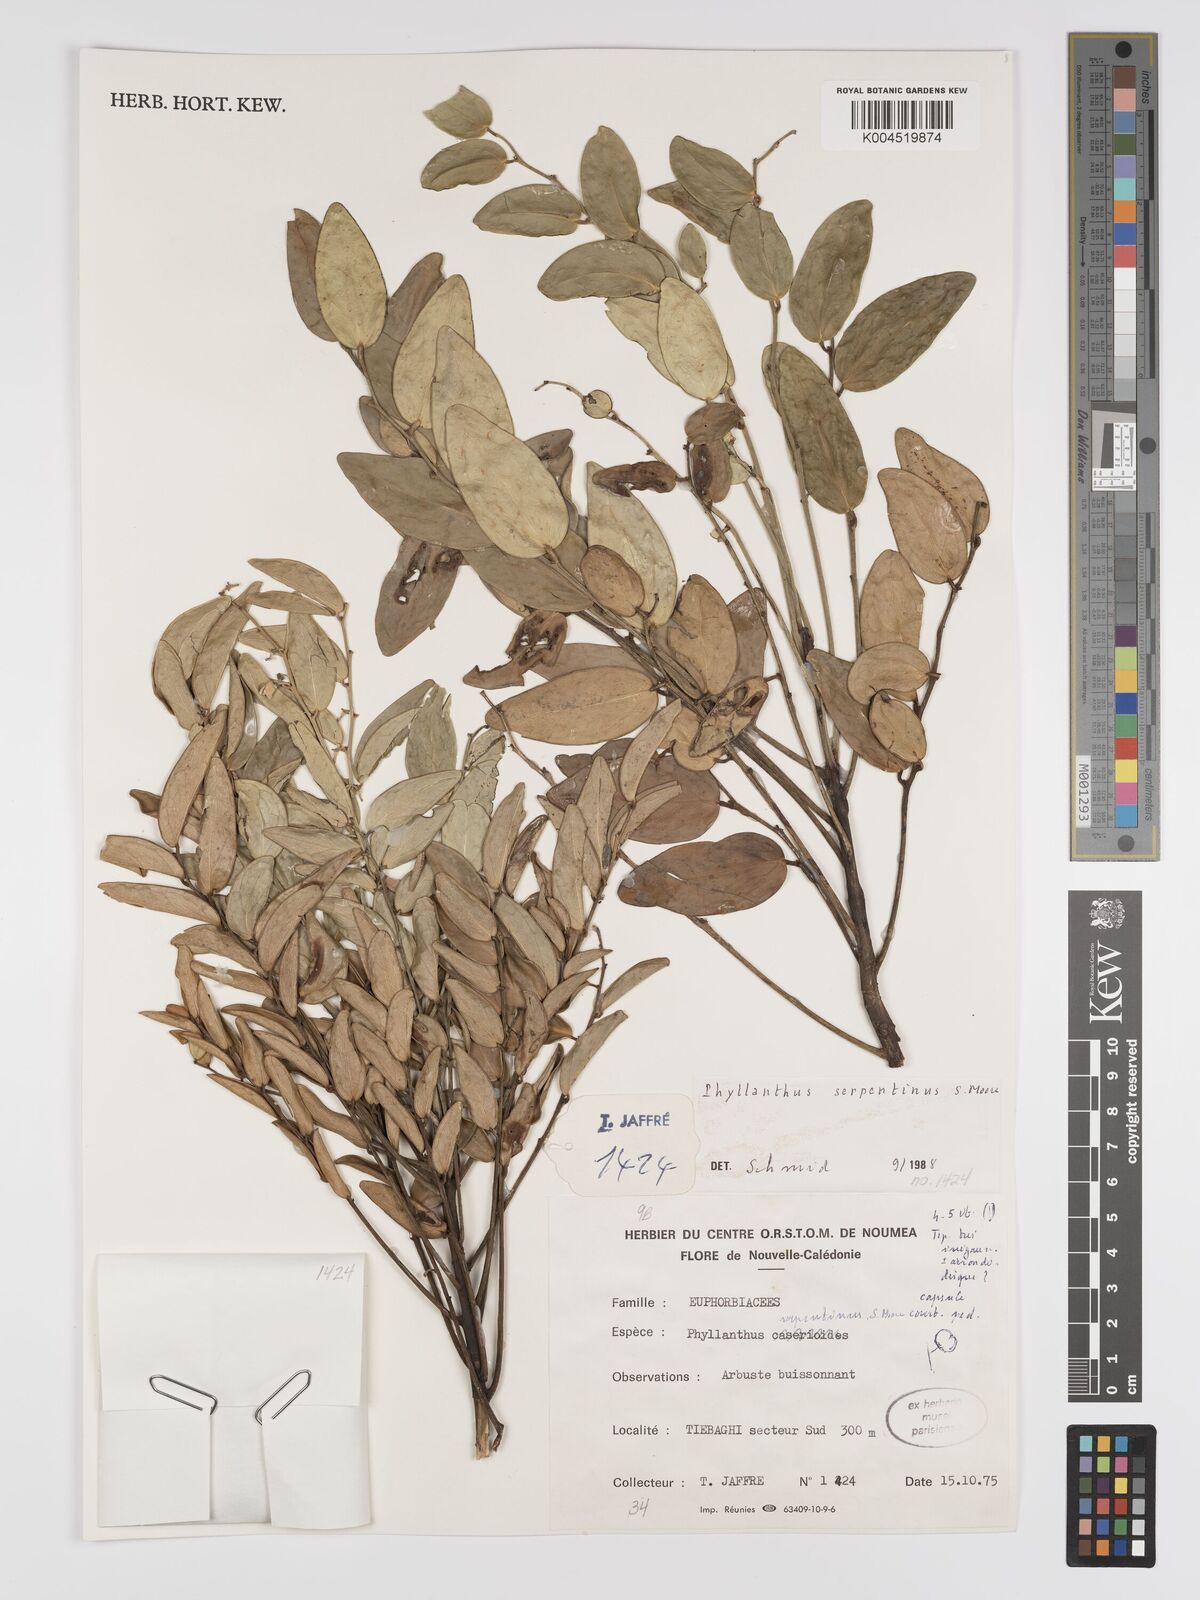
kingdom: Plantae
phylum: Tracheophyta
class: Magnoliopsida
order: Malpighiales
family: Phyllanthaceae
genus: Phyllanthus
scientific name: Phyllanthus serpentinus
